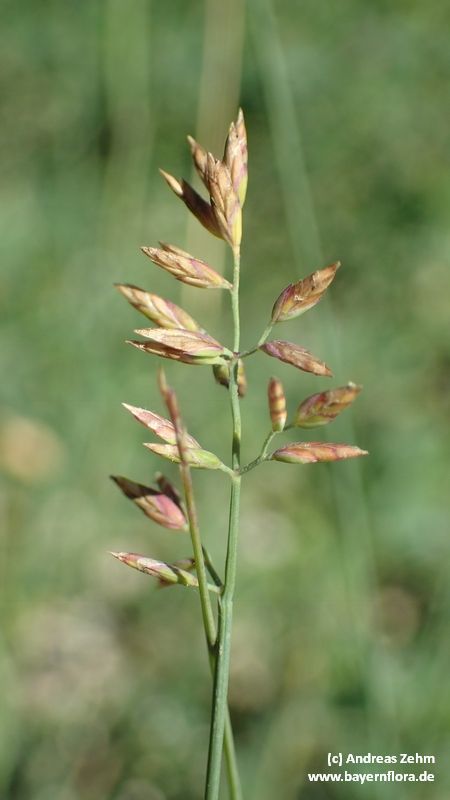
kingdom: Plantae
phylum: Tracheophyta
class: Liliopsida
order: Poales
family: Poaceae
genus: Poa
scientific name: Poa compressa
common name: Canada bluegrass
